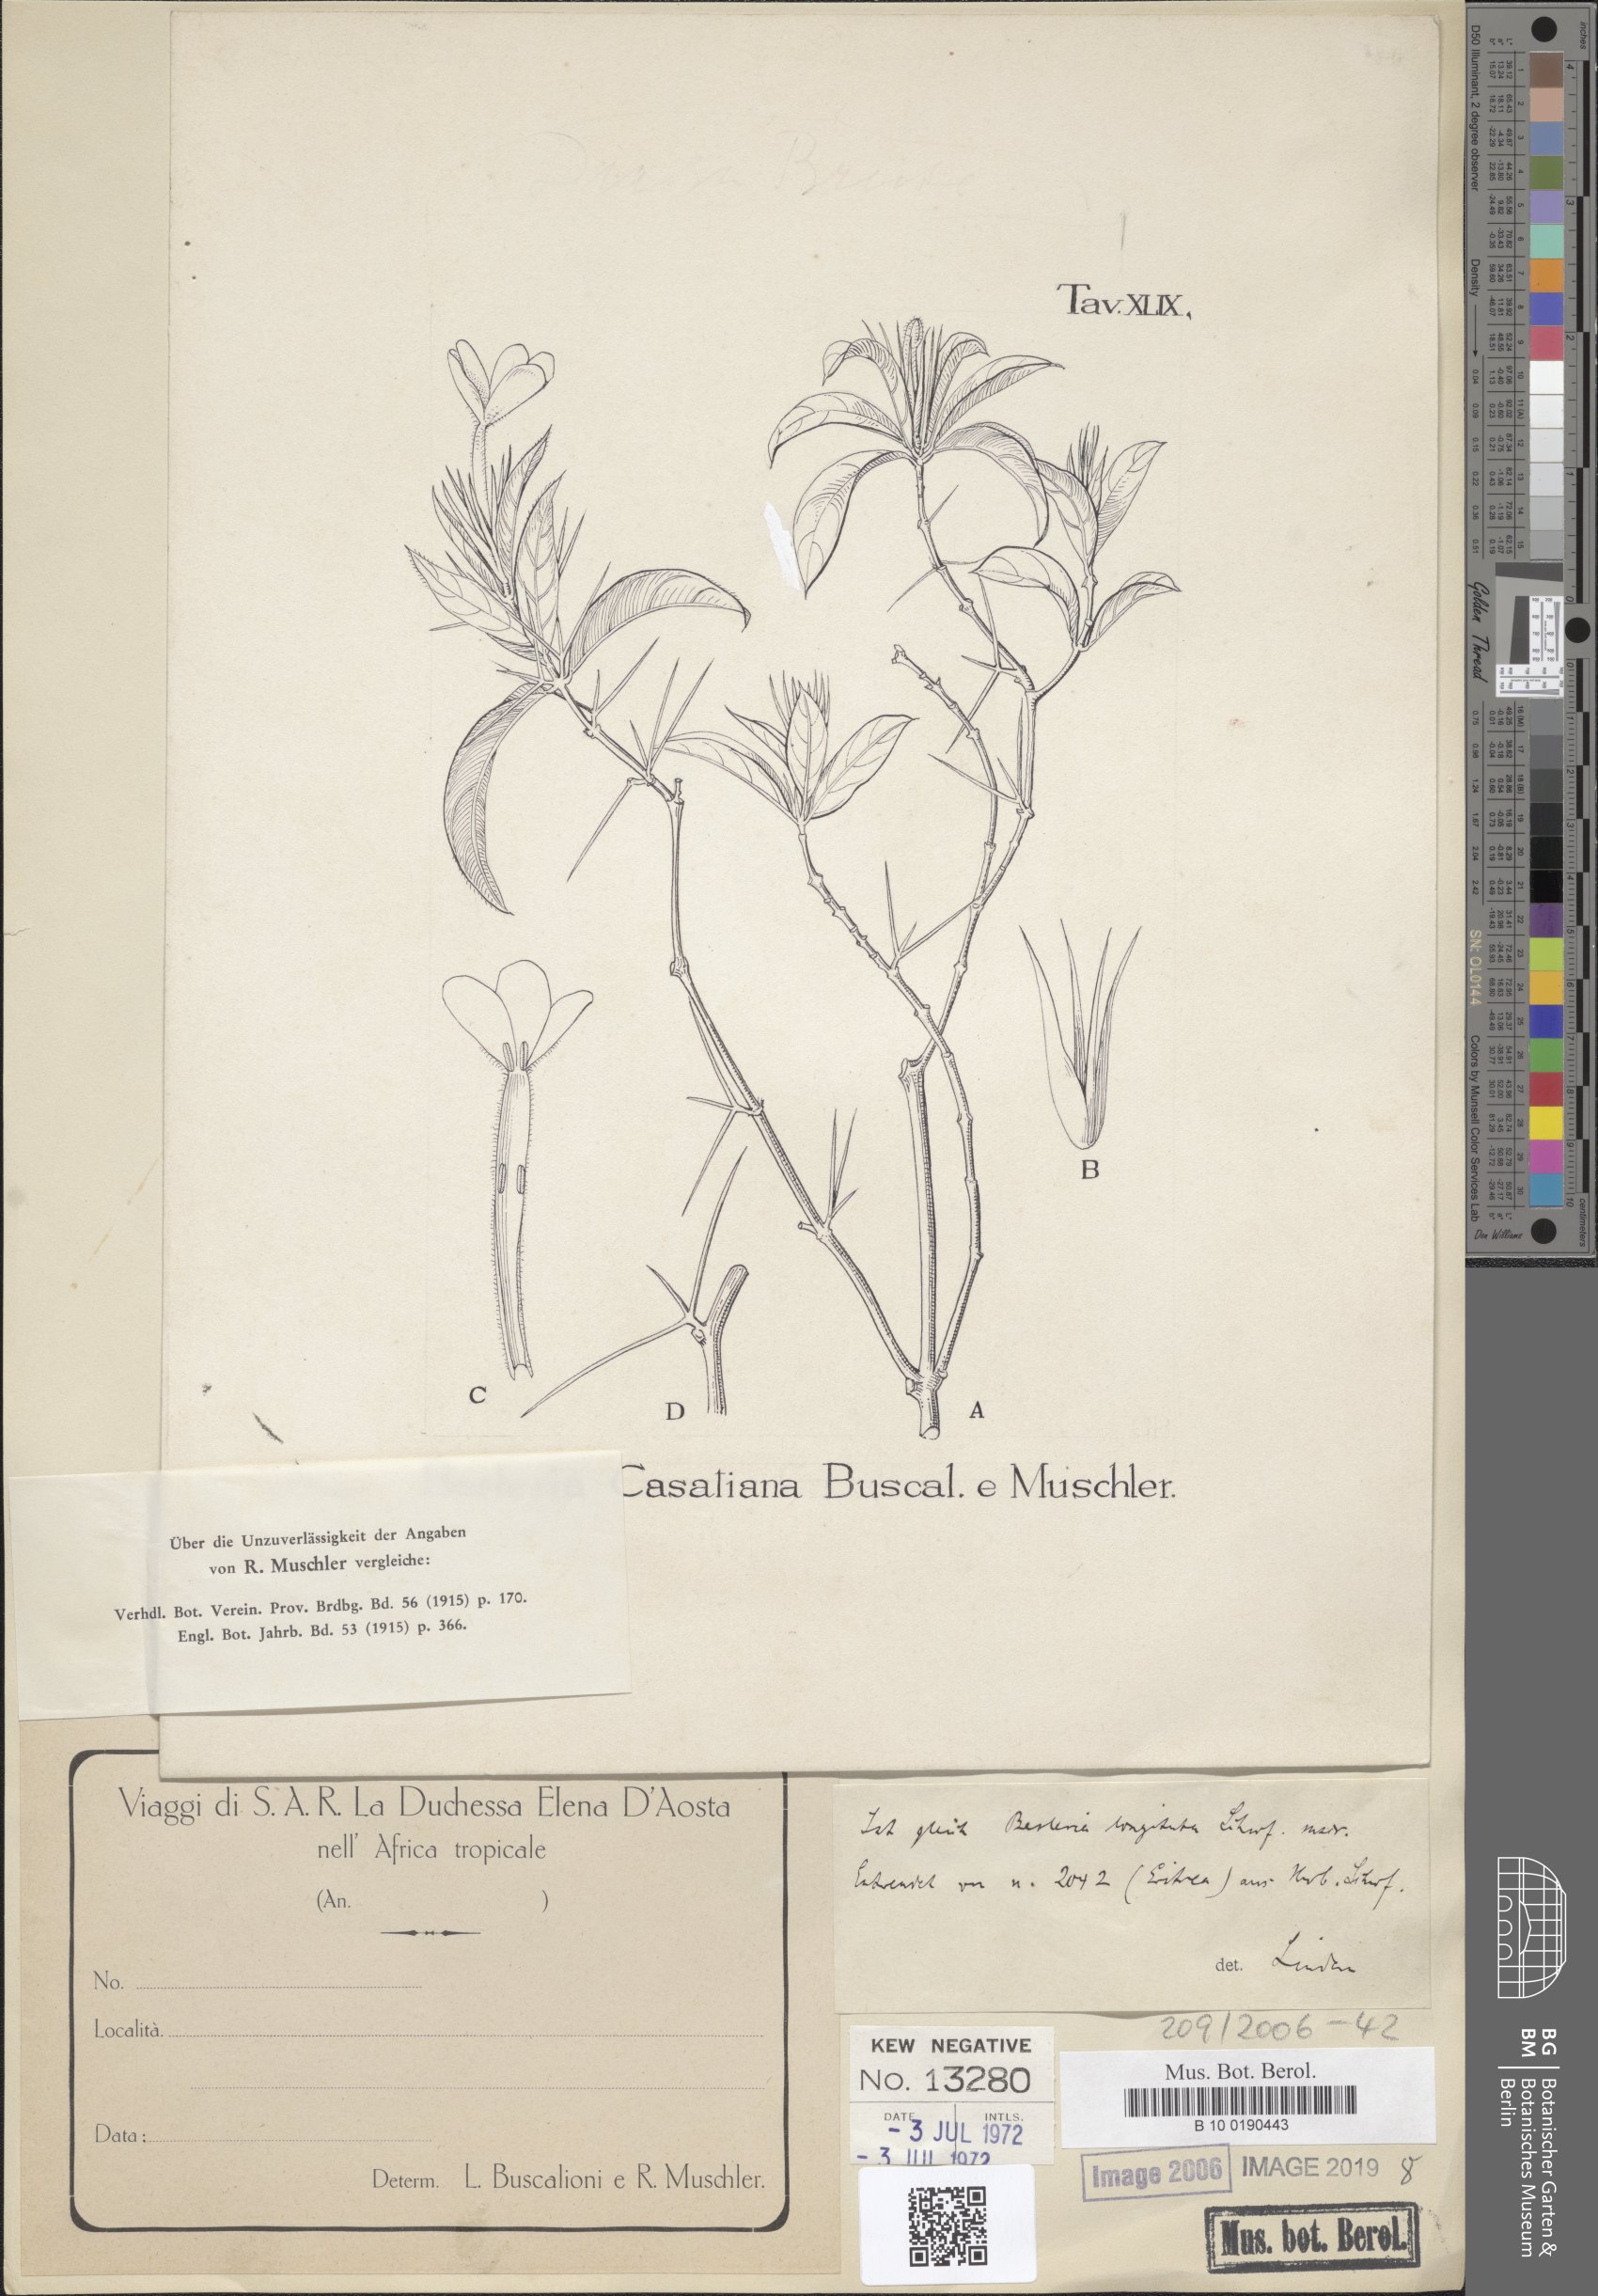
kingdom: Plantae
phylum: Tracheophyta
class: Magnoliopsida
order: Lamiales
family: Acanthaceae
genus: Barleria
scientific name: Barleria casatiana
